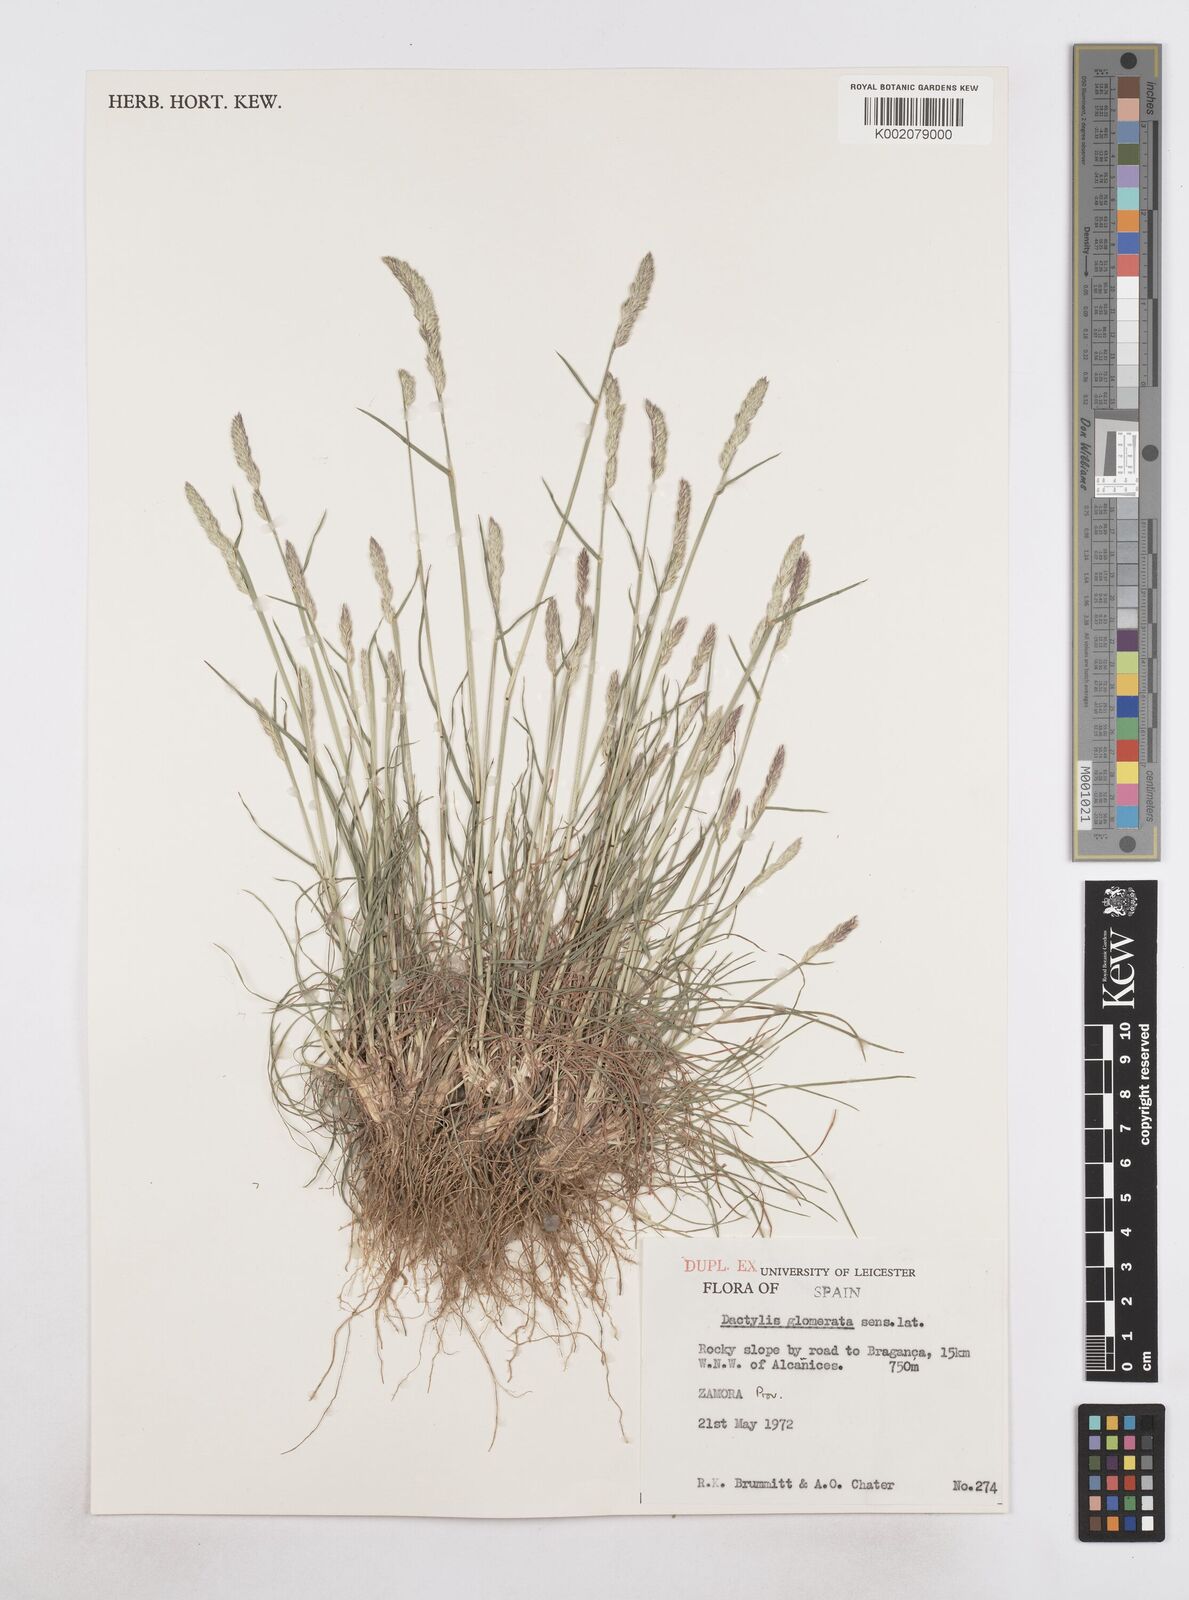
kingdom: Plantae
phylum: Tracheophyta
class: Liliopsida
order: Poales
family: Poaceae
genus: Dactylis
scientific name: Dactylis glomerata
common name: Orchardgrass
